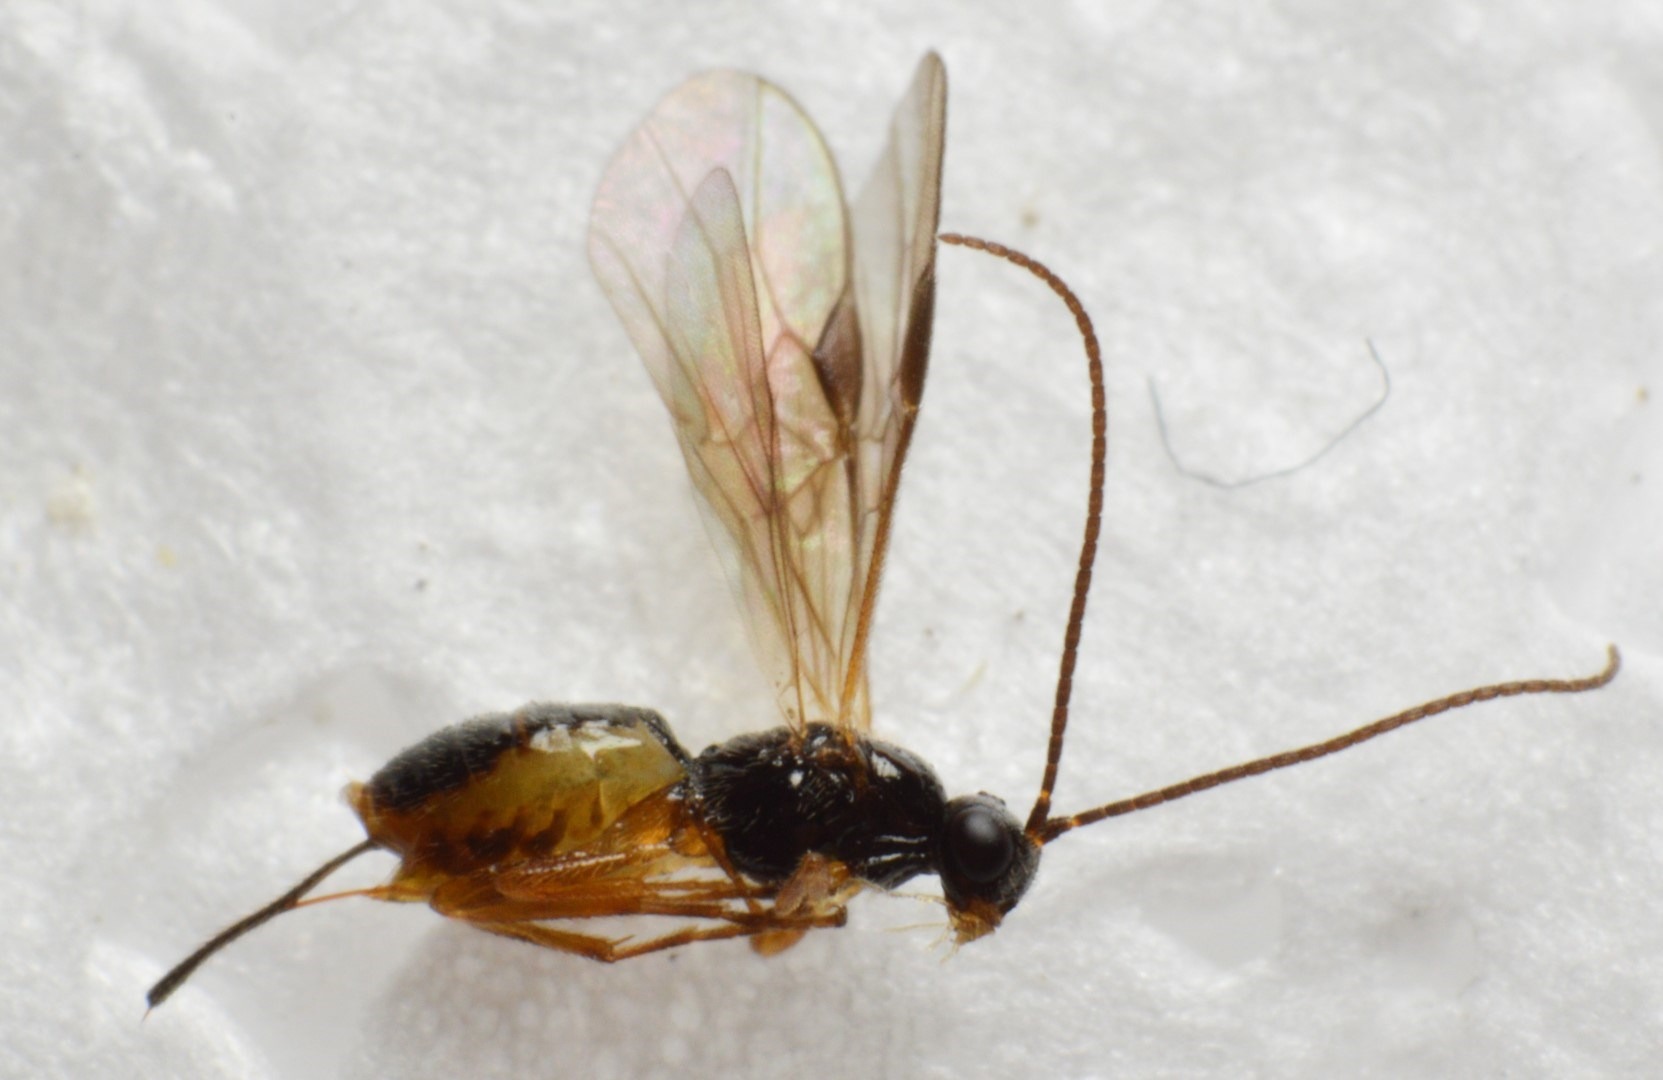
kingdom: Animalia
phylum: Arthropoda
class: Insecta
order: Hymenoptera
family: Braconidae
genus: Bracon
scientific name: Bracon immutator
